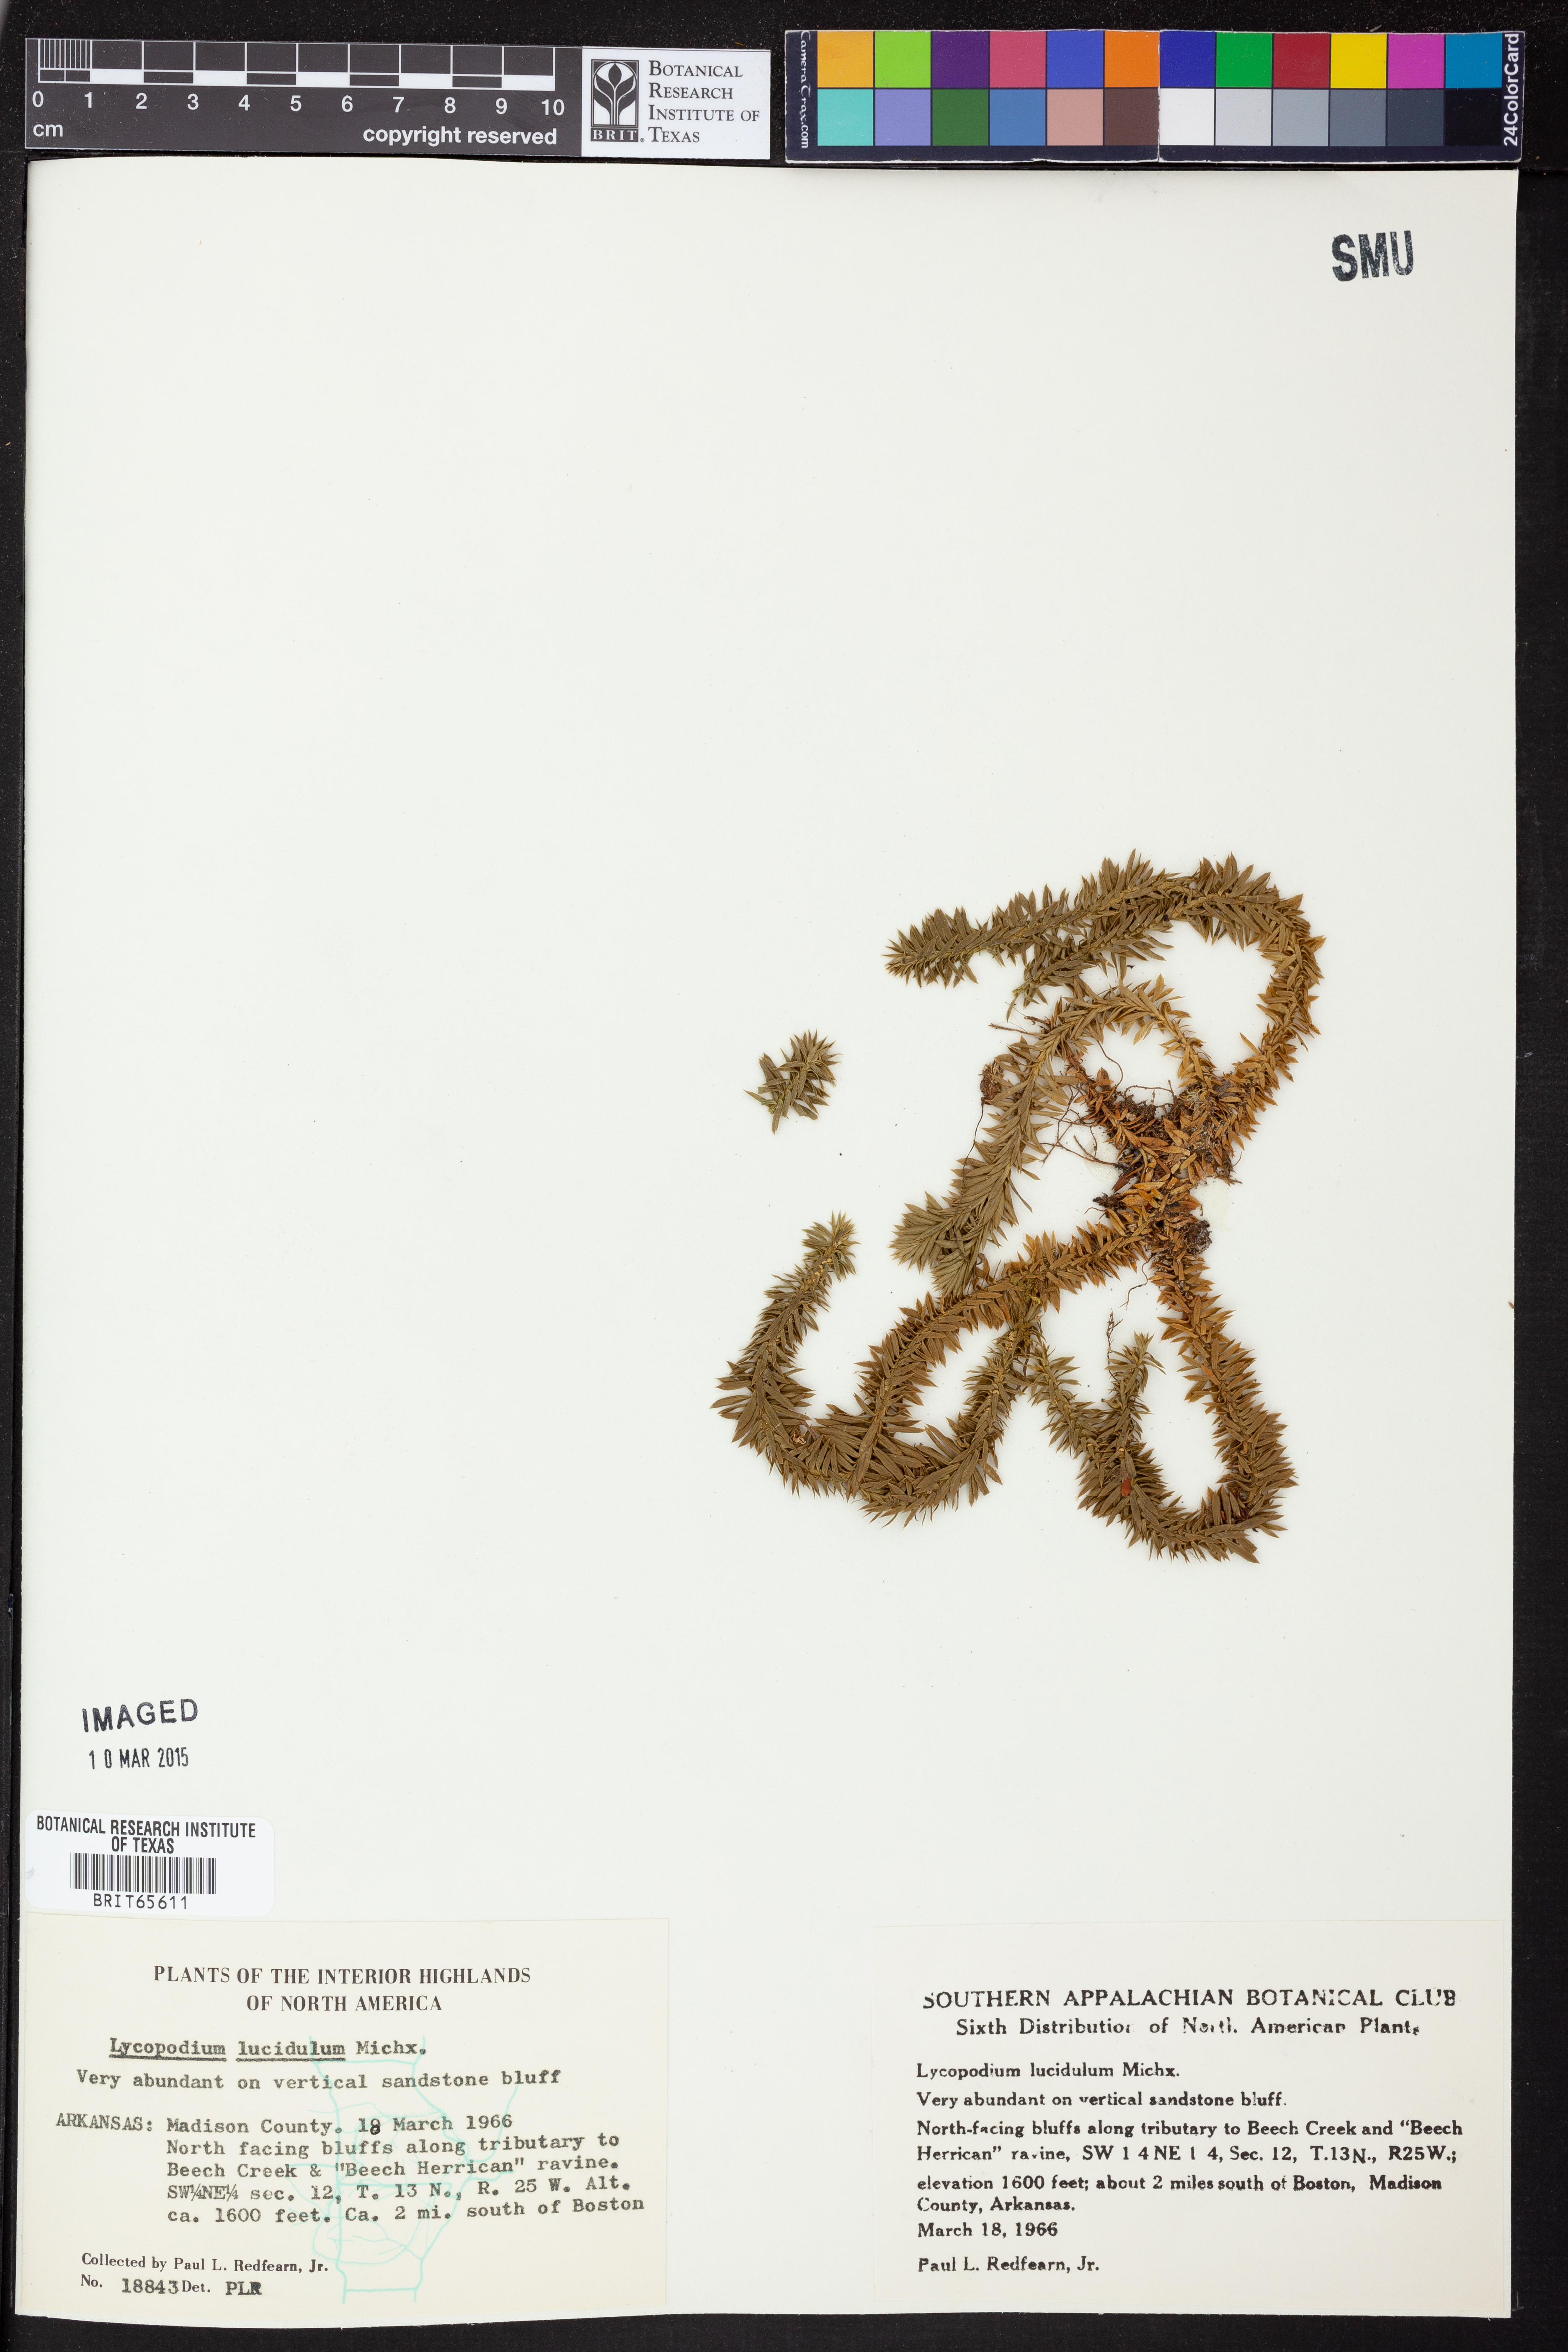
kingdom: Plantae
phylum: Tracheophyta
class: Lycopodiopsida
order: Lycopodiales
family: Lycopodiaceae
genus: Huperzia
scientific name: Huperzia lucidula
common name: Shining clubmoss
